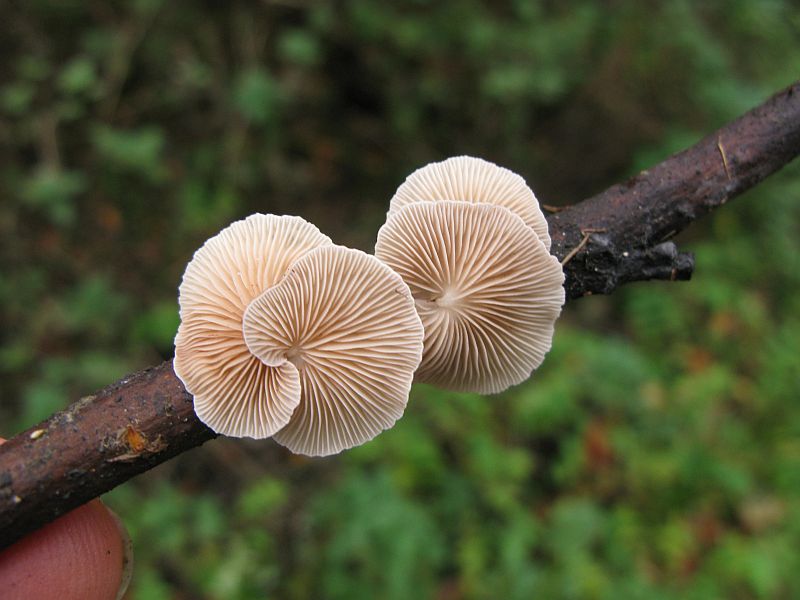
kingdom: Fungi
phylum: Basidiomycota
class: Agaricomycetes
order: Agaricales
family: Crepidotaceae
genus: Crepidotus
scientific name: Crepidotus luteolus
